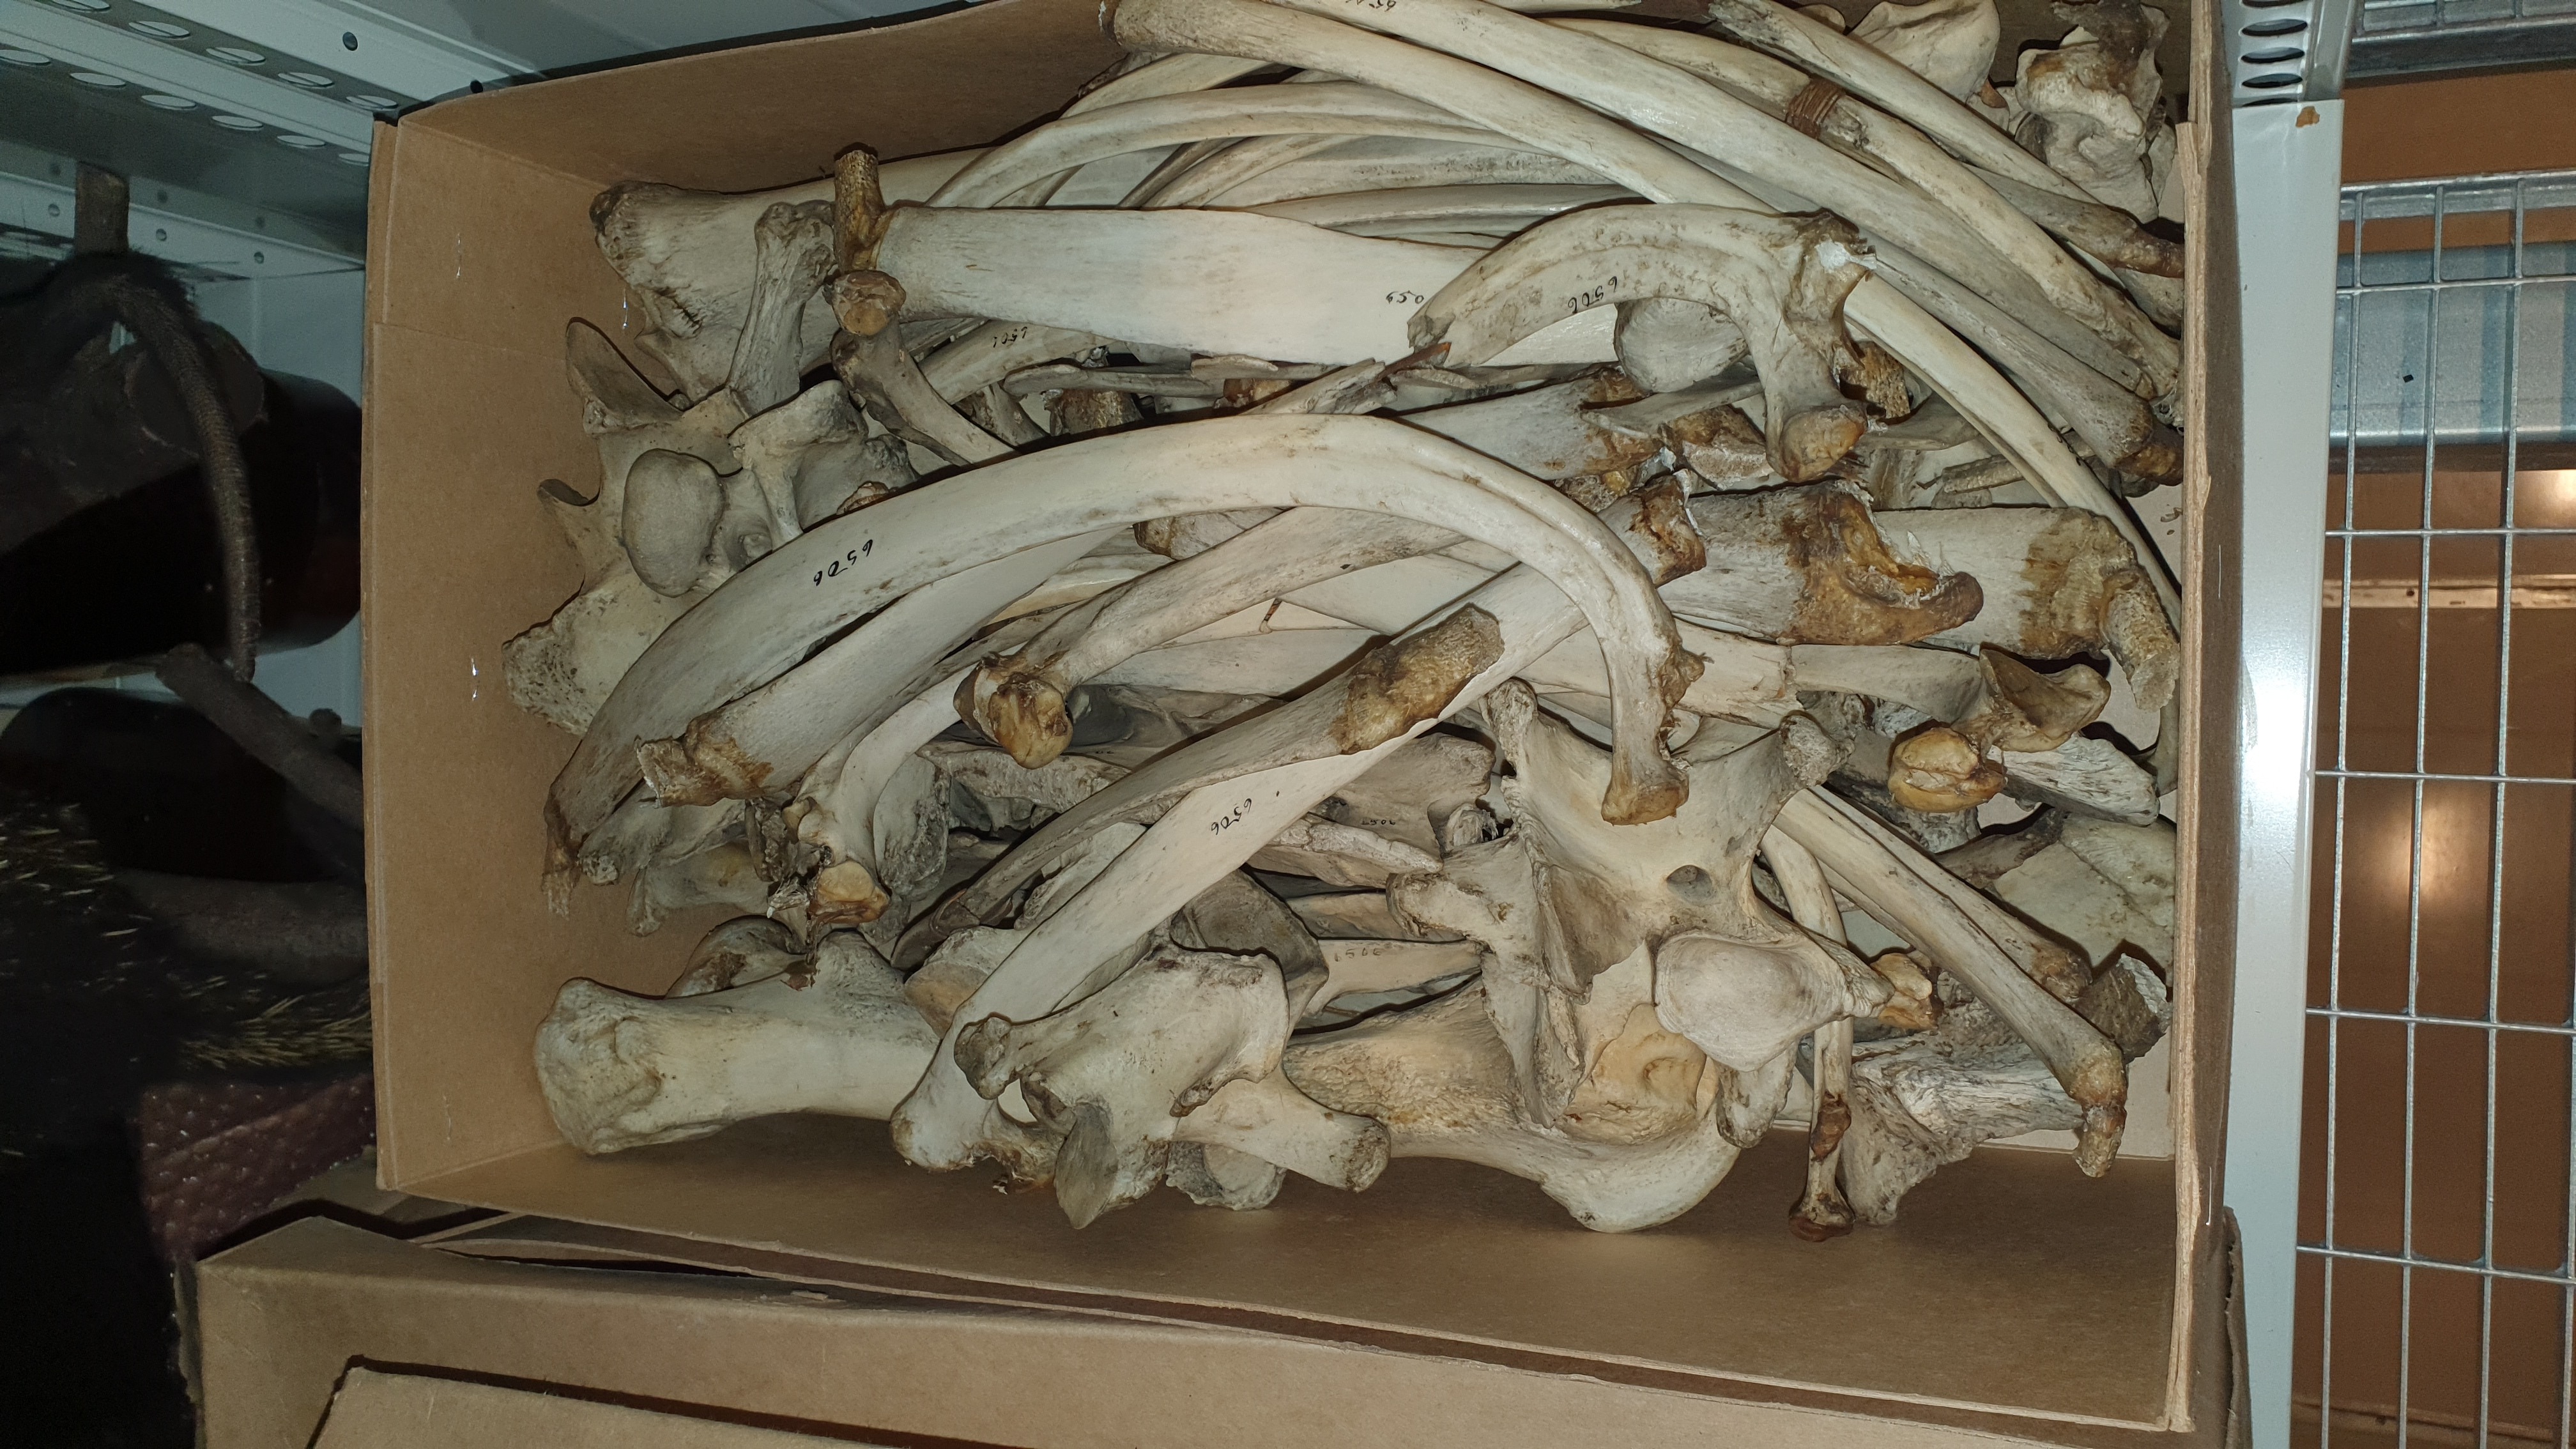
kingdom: Animalia
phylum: Chordata
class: Mammalia
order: Perissodactyla
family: Equidae
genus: Equus
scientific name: Equus quagga
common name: Plains zebra
